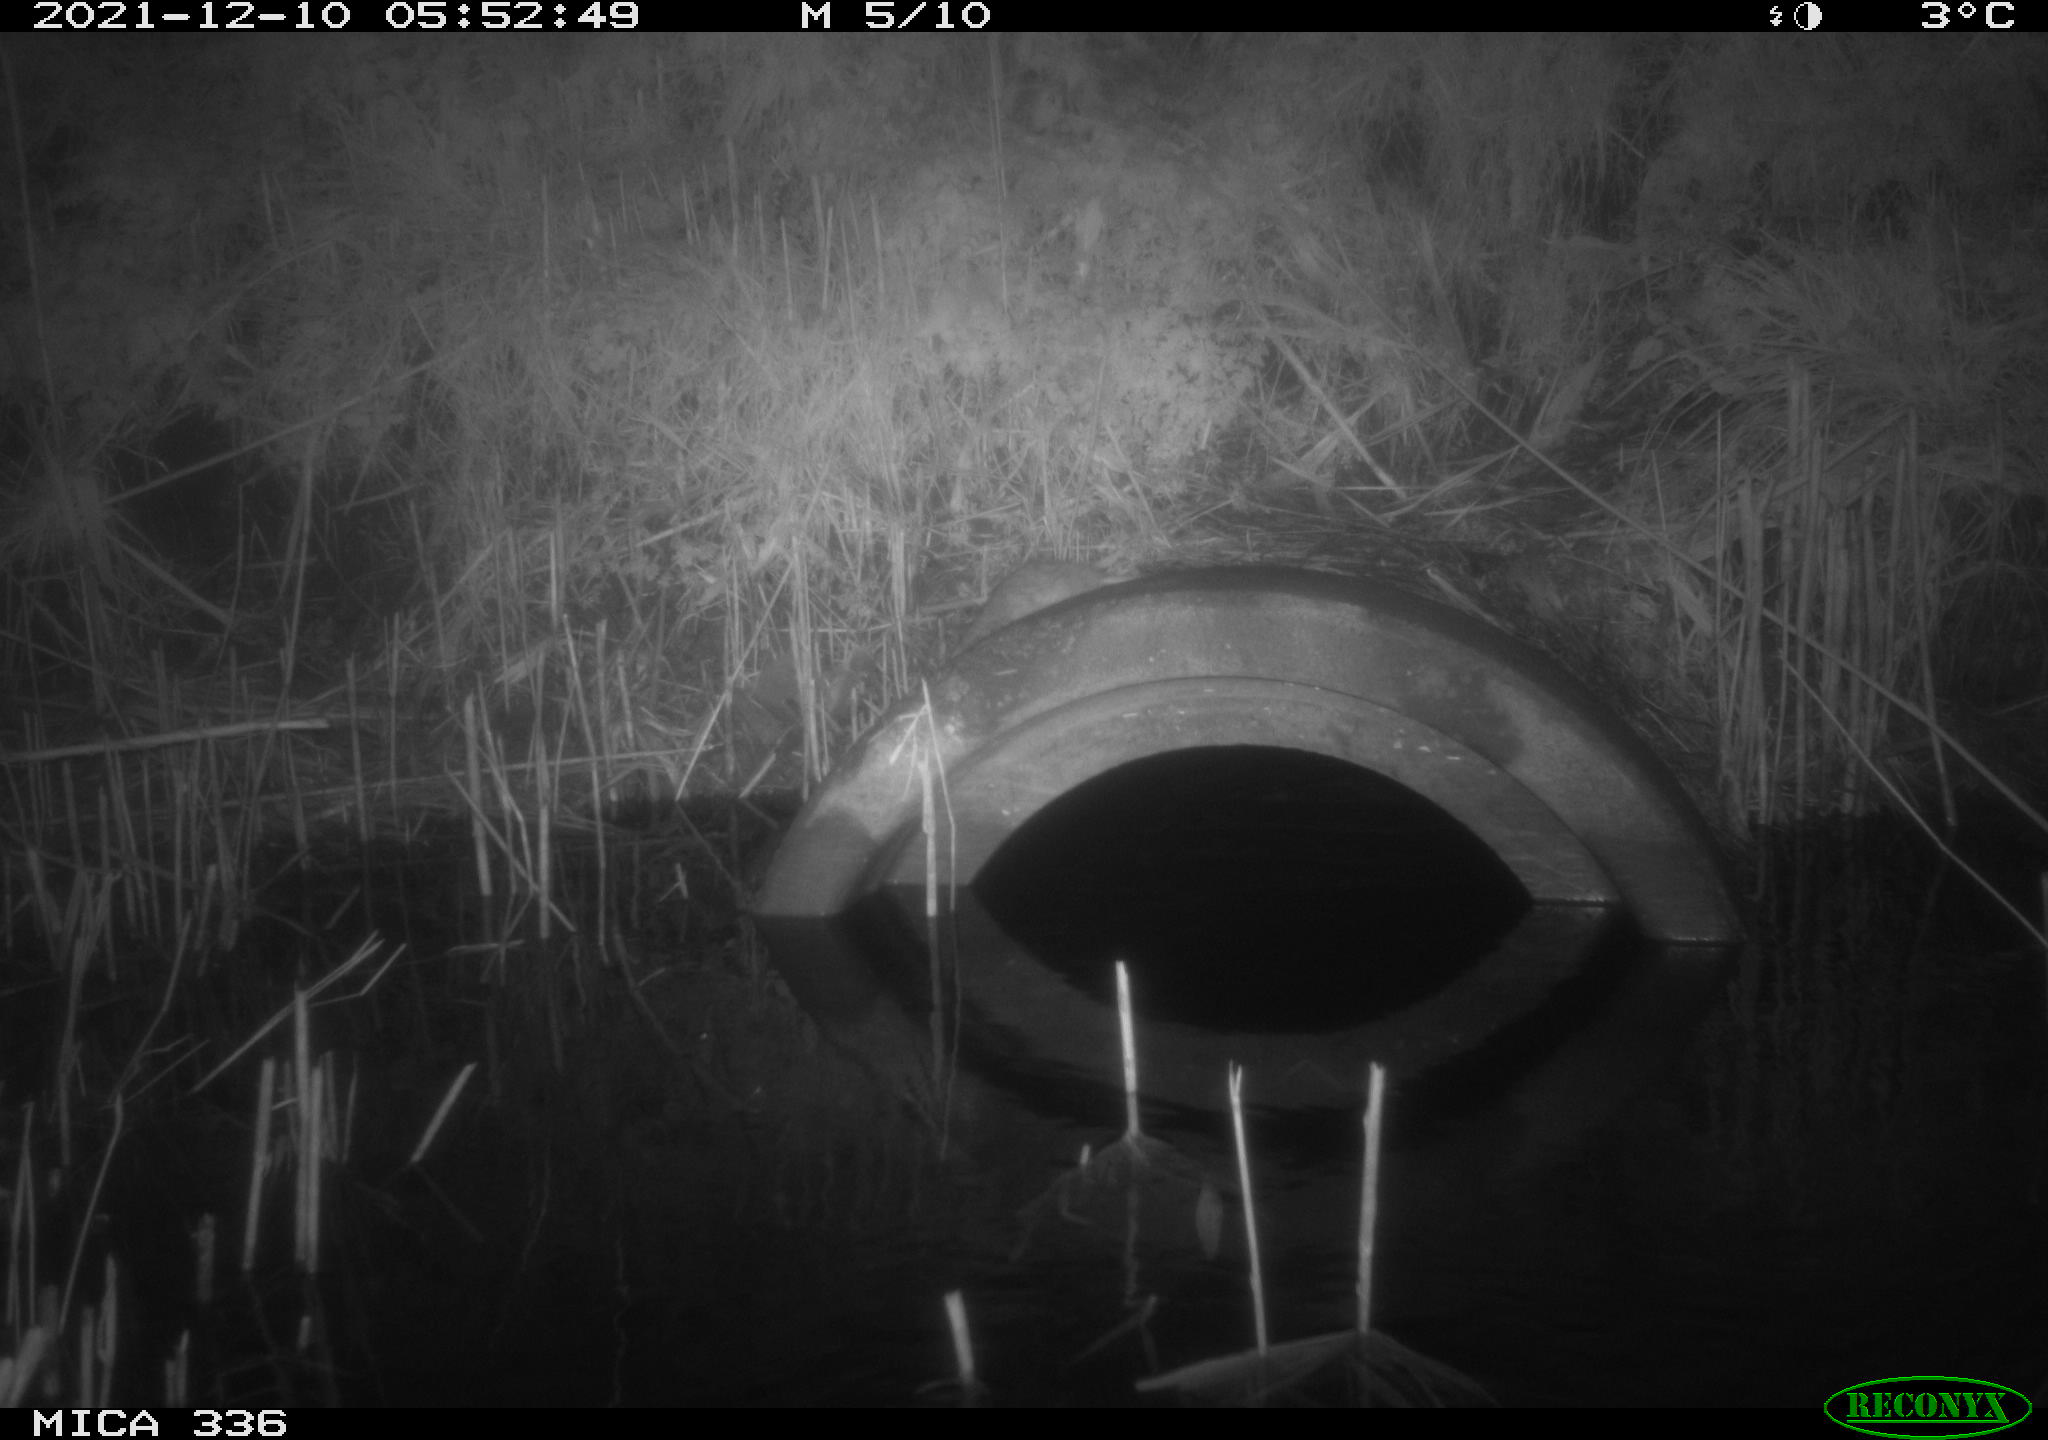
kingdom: Animalia
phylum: Chordata
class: Mammalia
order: Rodentia
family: Muridae
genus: Rattus
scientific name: Rattus norvegicus
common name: Brown rat
